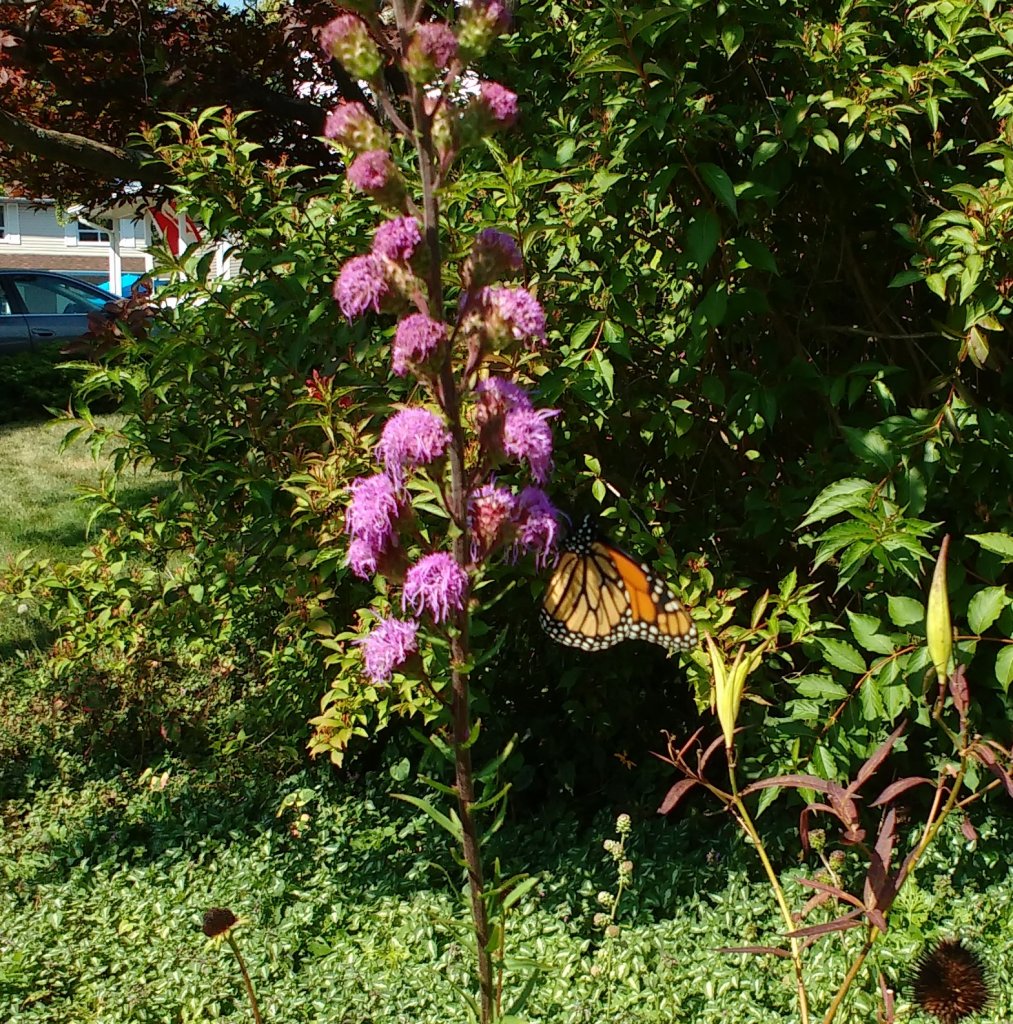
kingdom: Animalia
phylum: Arthropoda
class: Insecta
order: Lepidoptera
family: Nymphalidae
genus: Danaus
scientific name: Danaus plexippus
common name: Monarch
